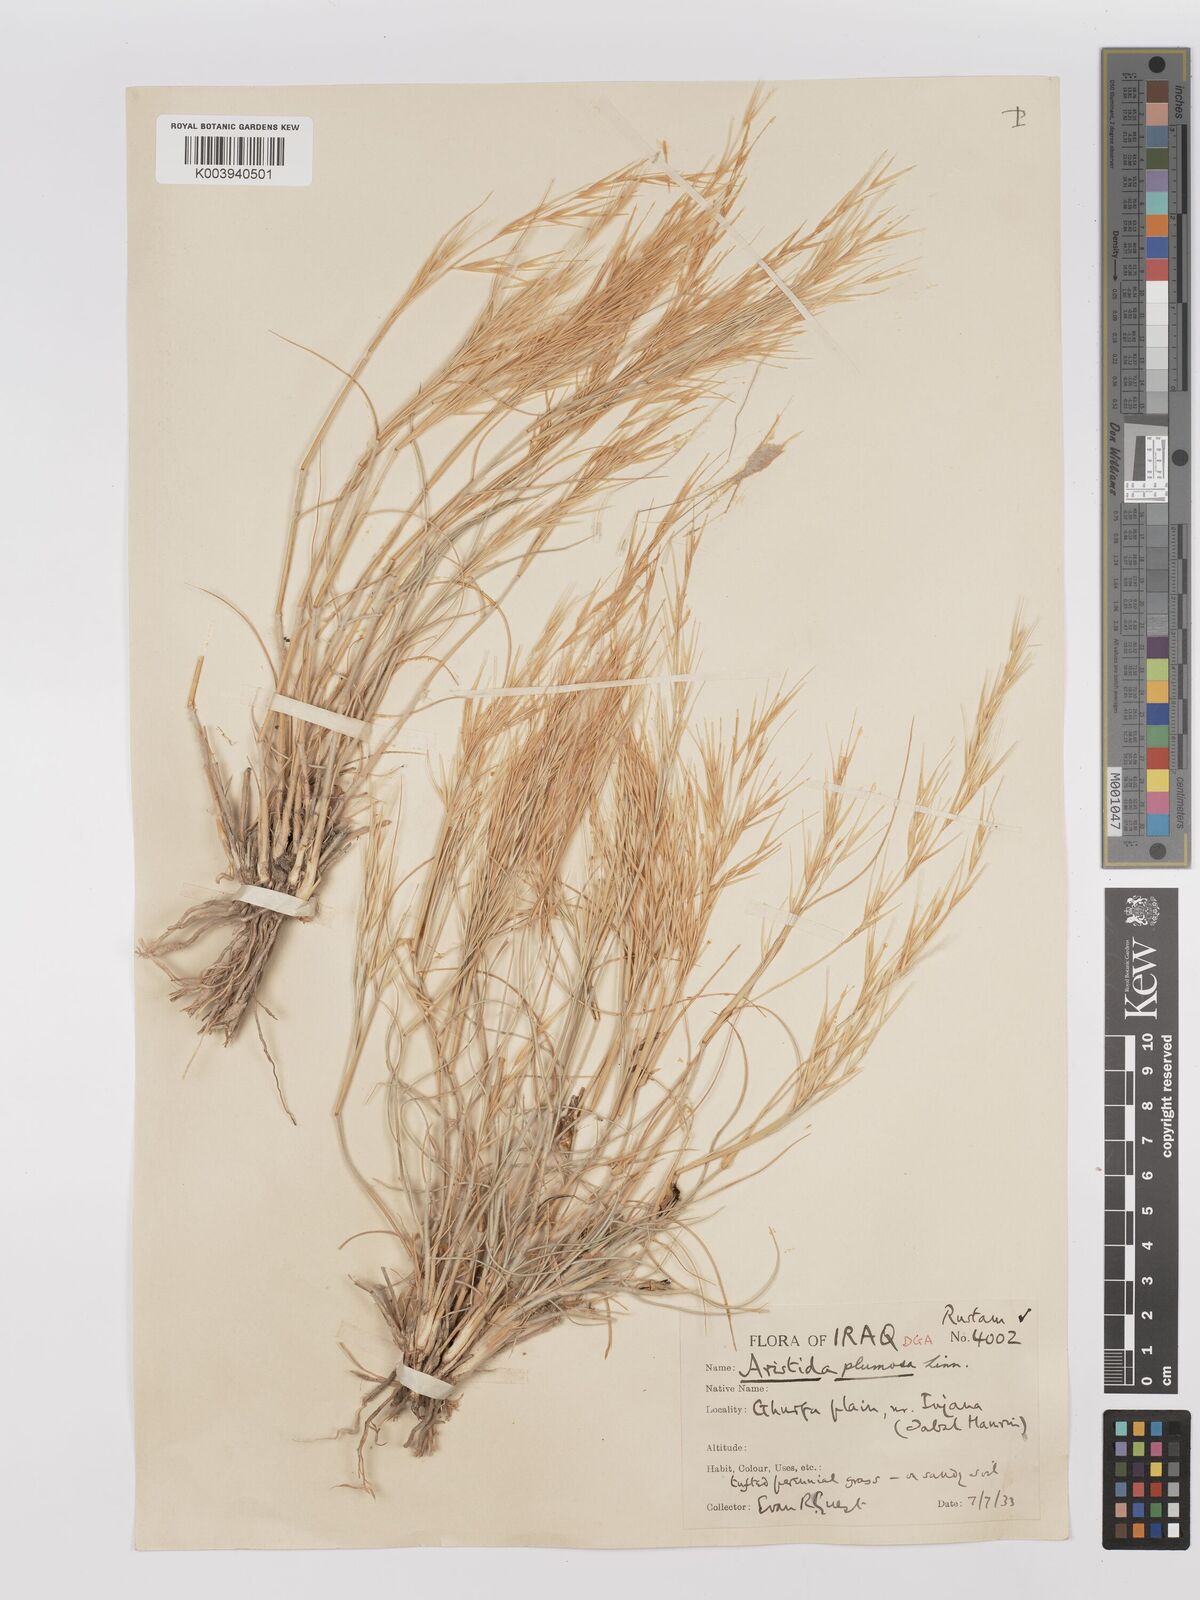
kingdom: Plantae
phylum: Tracheophyta
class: Liliopsida
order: Poales
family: Poaceae
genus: Stipagrostis
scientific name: Stipagrostis plumosa
